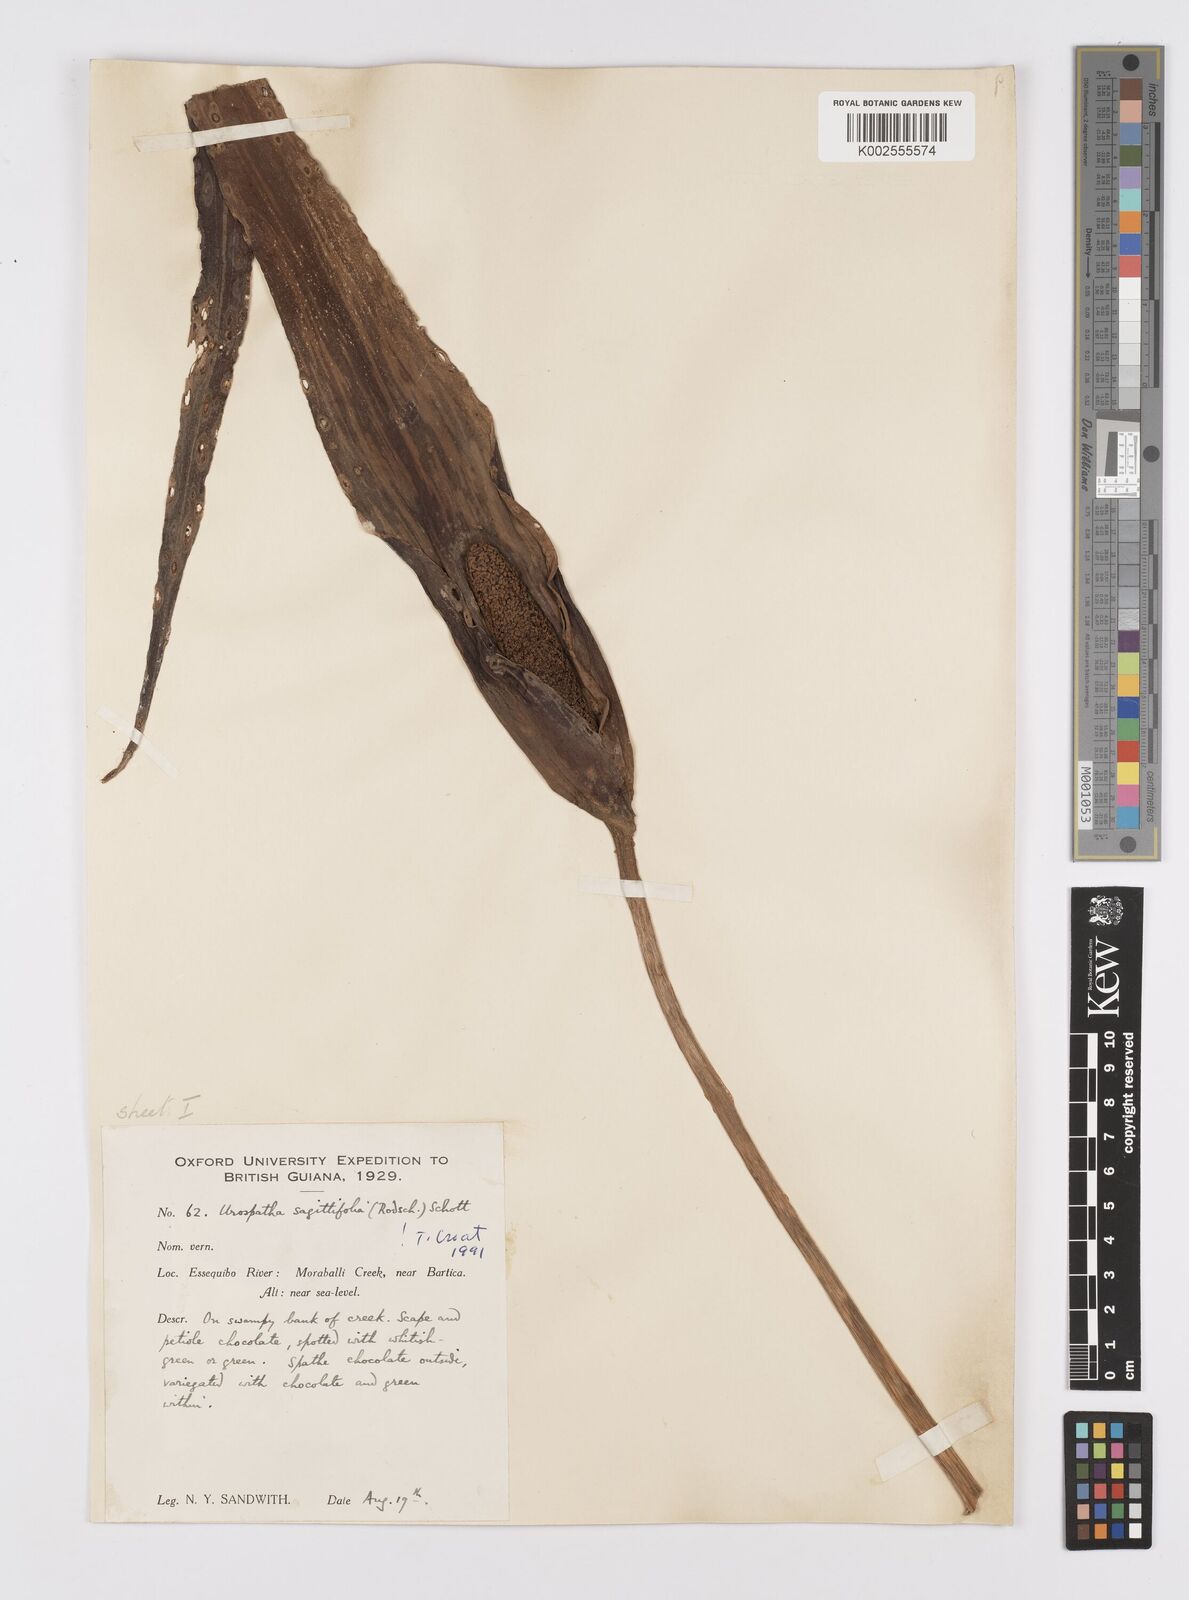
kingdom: Plantae
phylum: Tracheophyta
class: Liliopsida
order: Alismatales
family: Araceae
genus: Urospatha
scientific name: Urospatha sagittifolia
